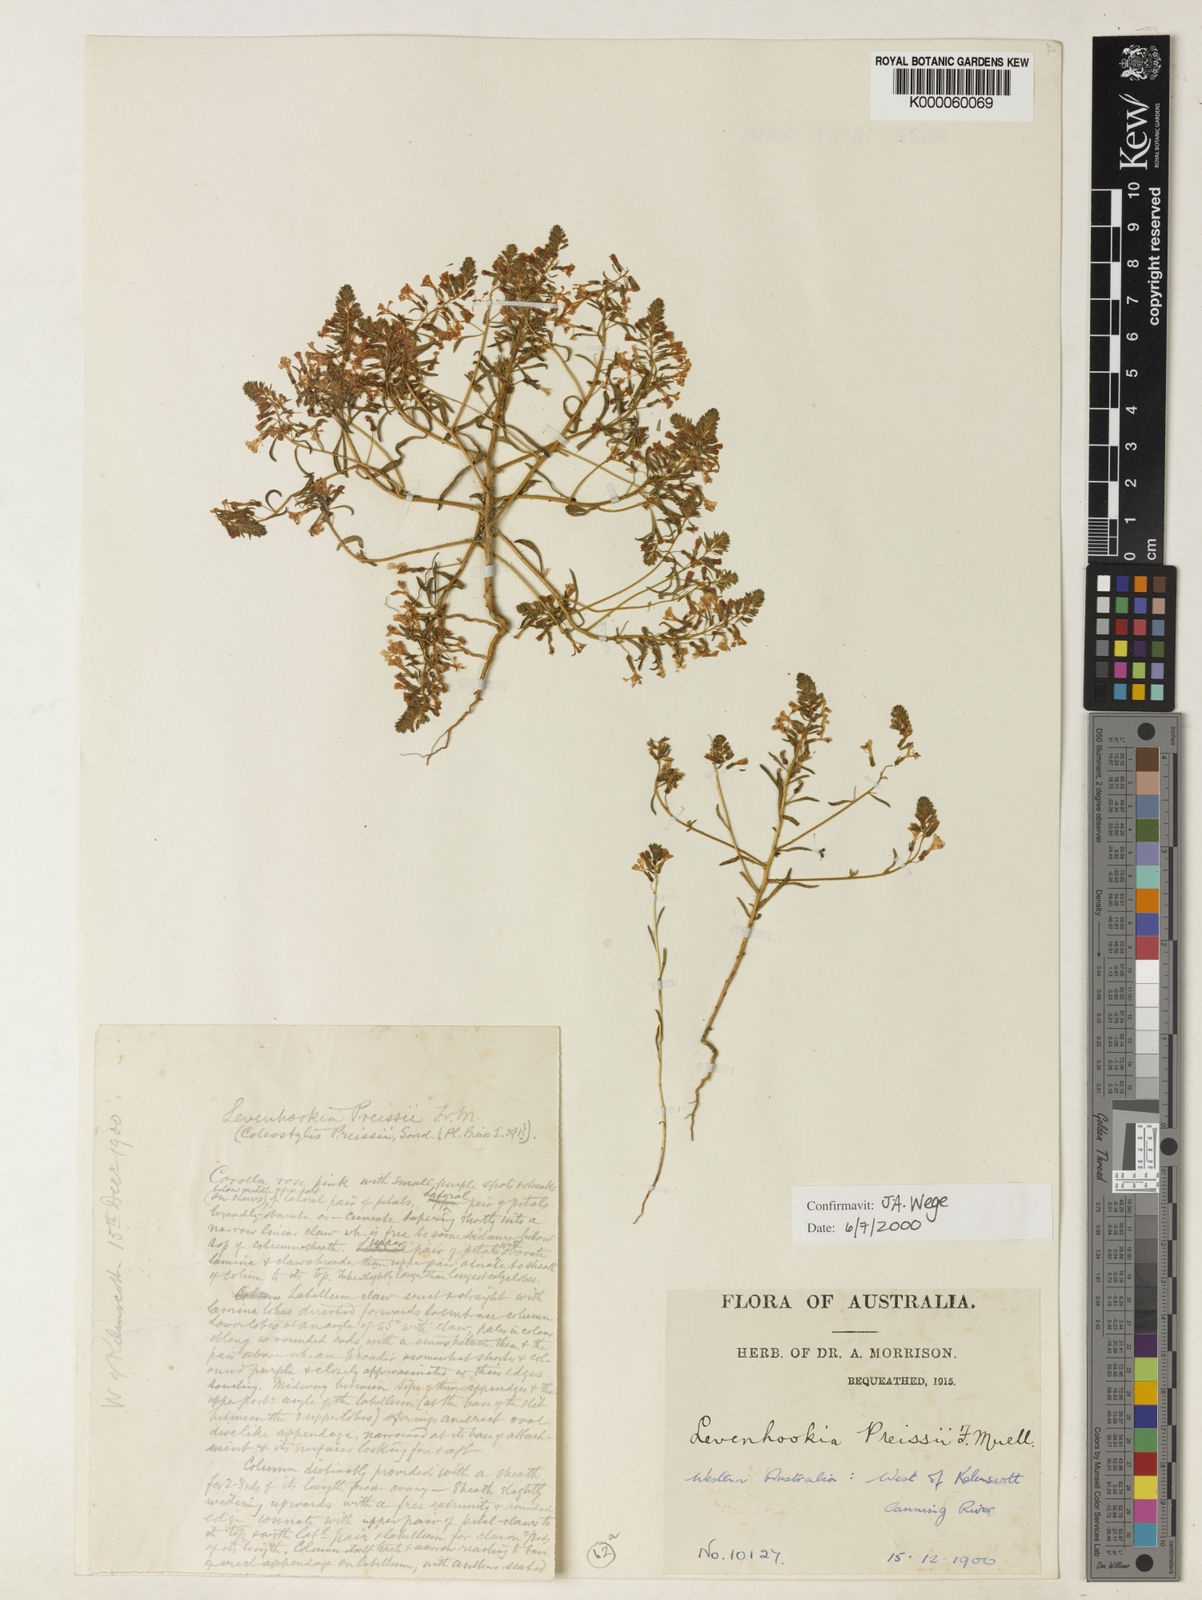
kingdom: Plantae
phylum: Tracheophyta
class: Magnoliopsida
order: Asterales
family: Stylidiaceae
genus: Levenhookia
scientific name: Levenhookia preissii
